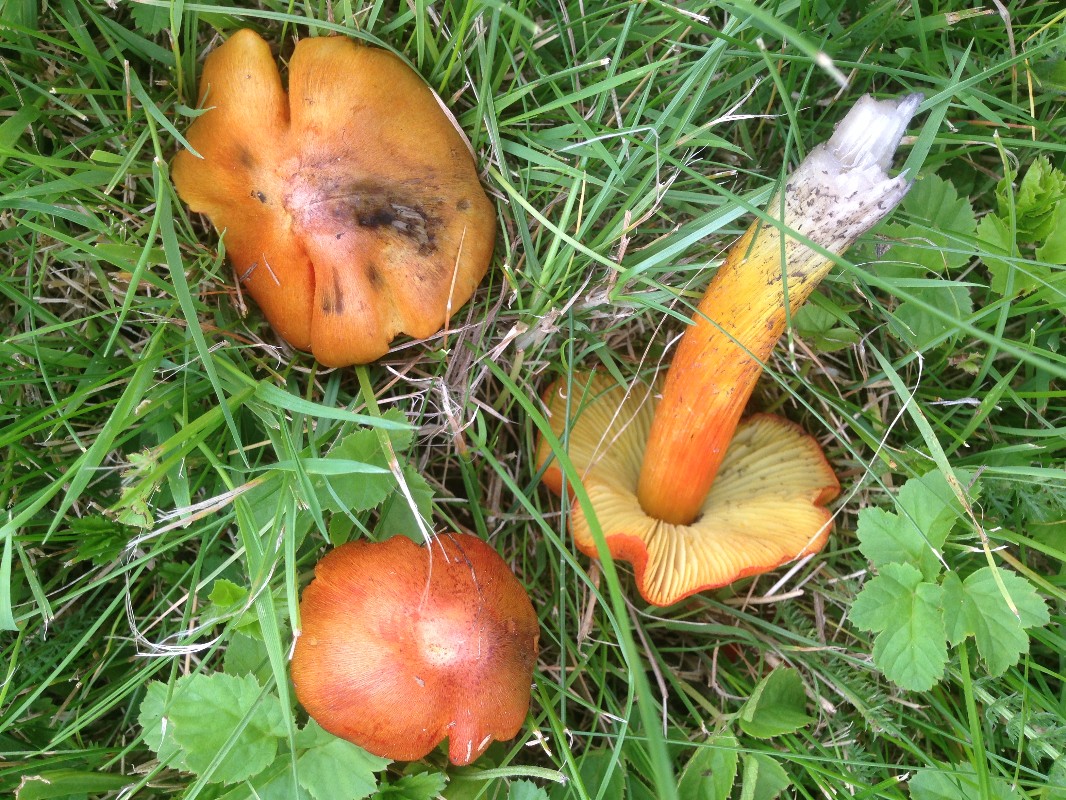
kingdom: Fungi
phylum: Basidiomycota
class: Agaricomycetes
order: Agaricales
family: Hygrophoraceae
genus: Hygrocybe
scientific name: Hygrocybe conica
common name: kegle-vokshat
